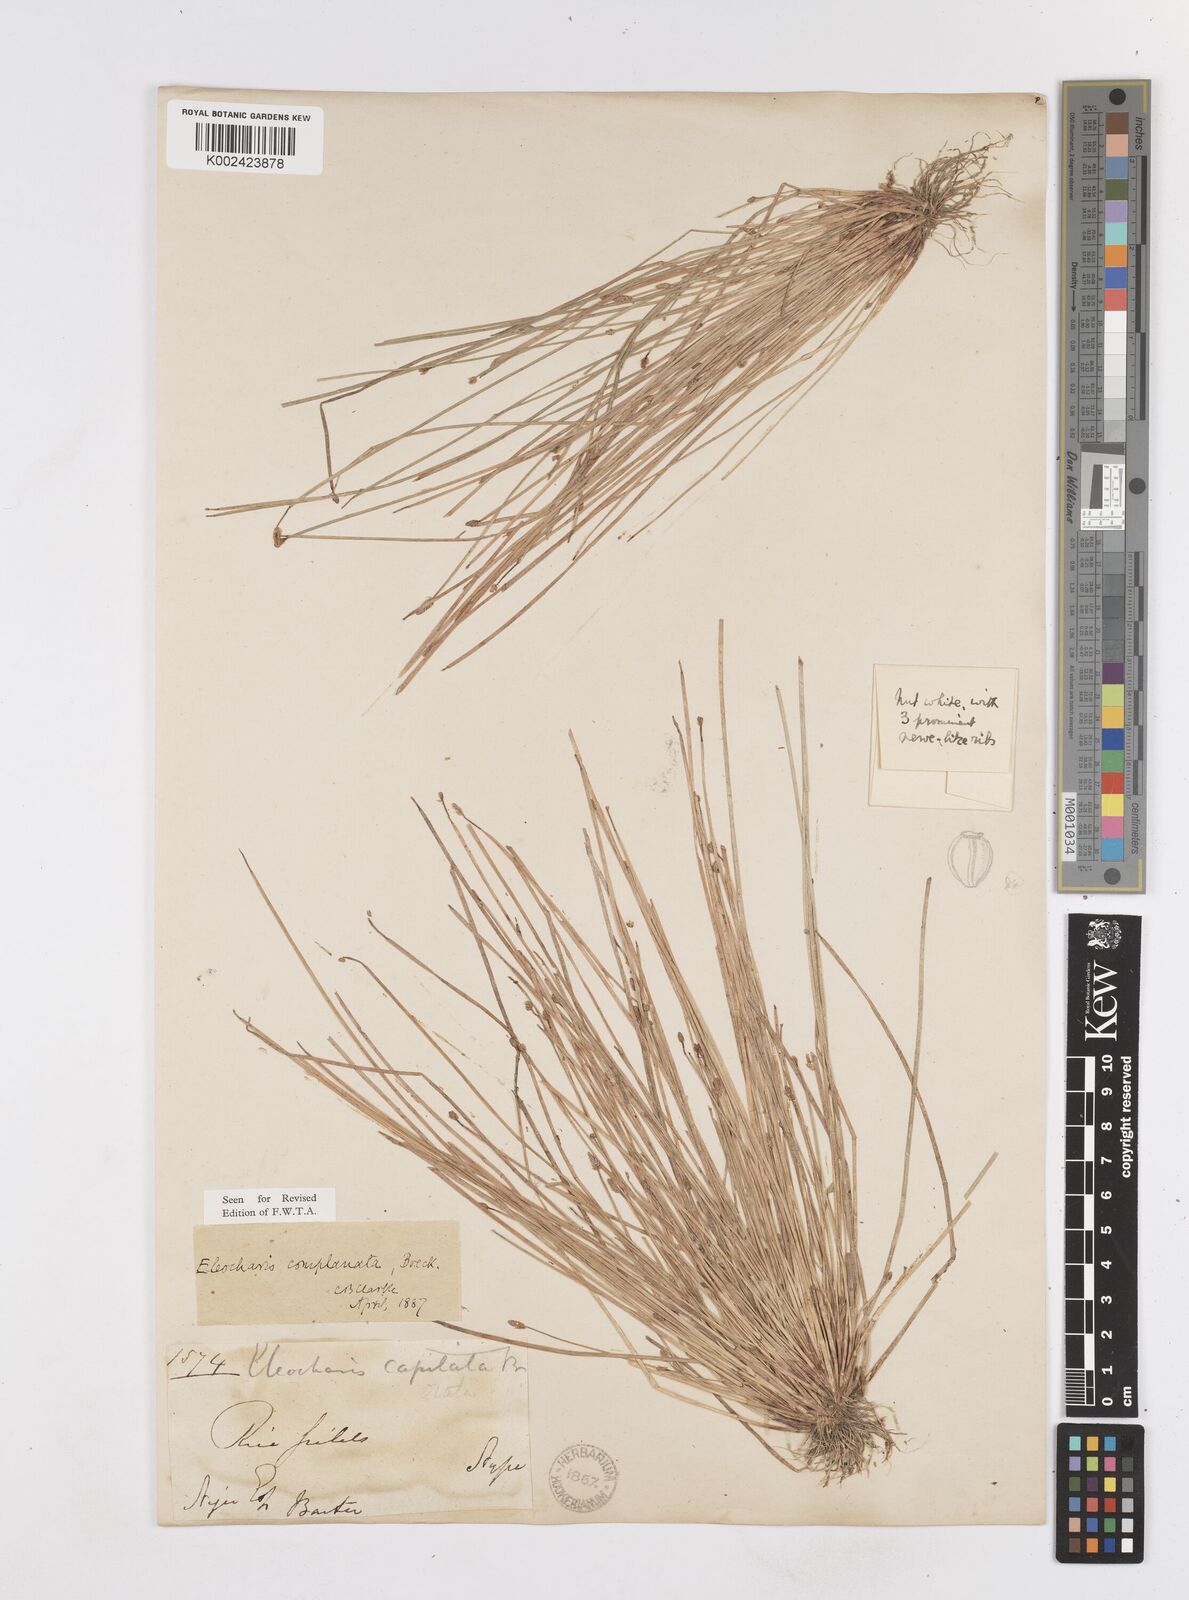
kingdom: Plantae
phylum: Tracheophyta
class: Liliopsida
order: Poales
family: Cyperaceae
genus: Eleocharis
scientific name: Eleocharis complanata
